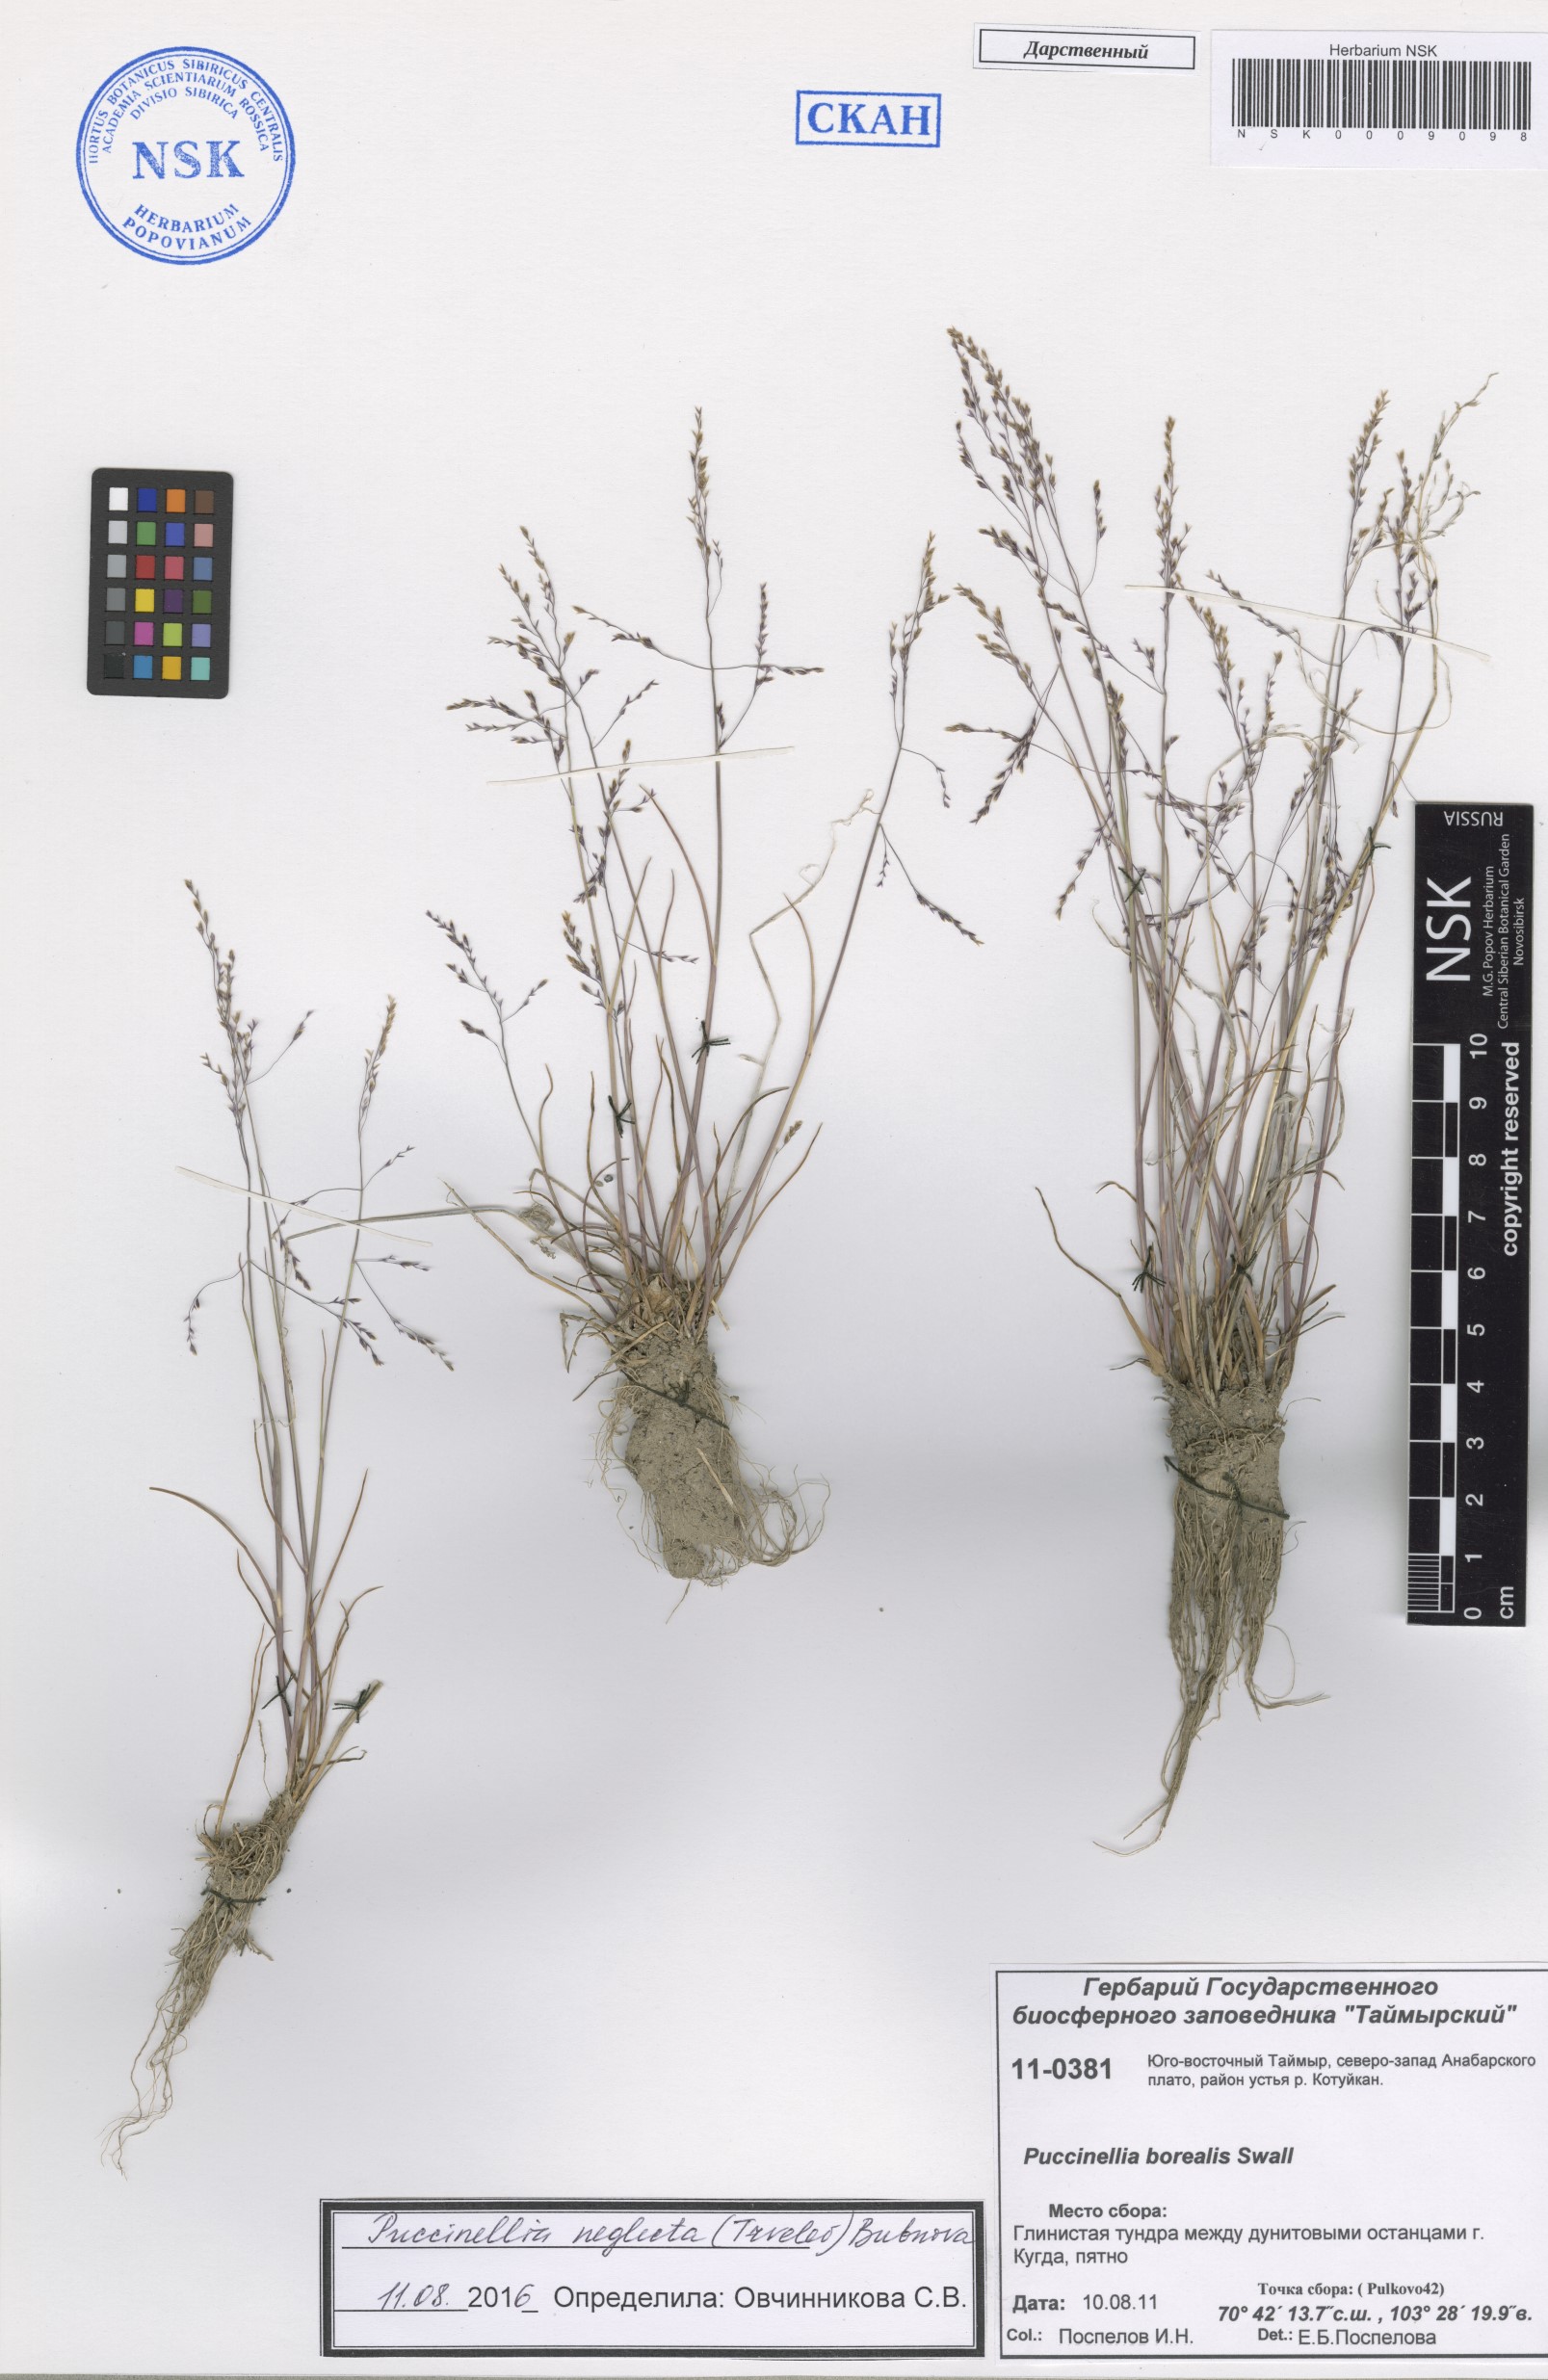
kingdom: Plantae
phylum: Tracheophyta
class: Liliopsida
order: Poales
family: Poaceae
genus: Puccinellia
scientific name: Puccinellia nuttalliana
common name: Nuttall's alkali grass
